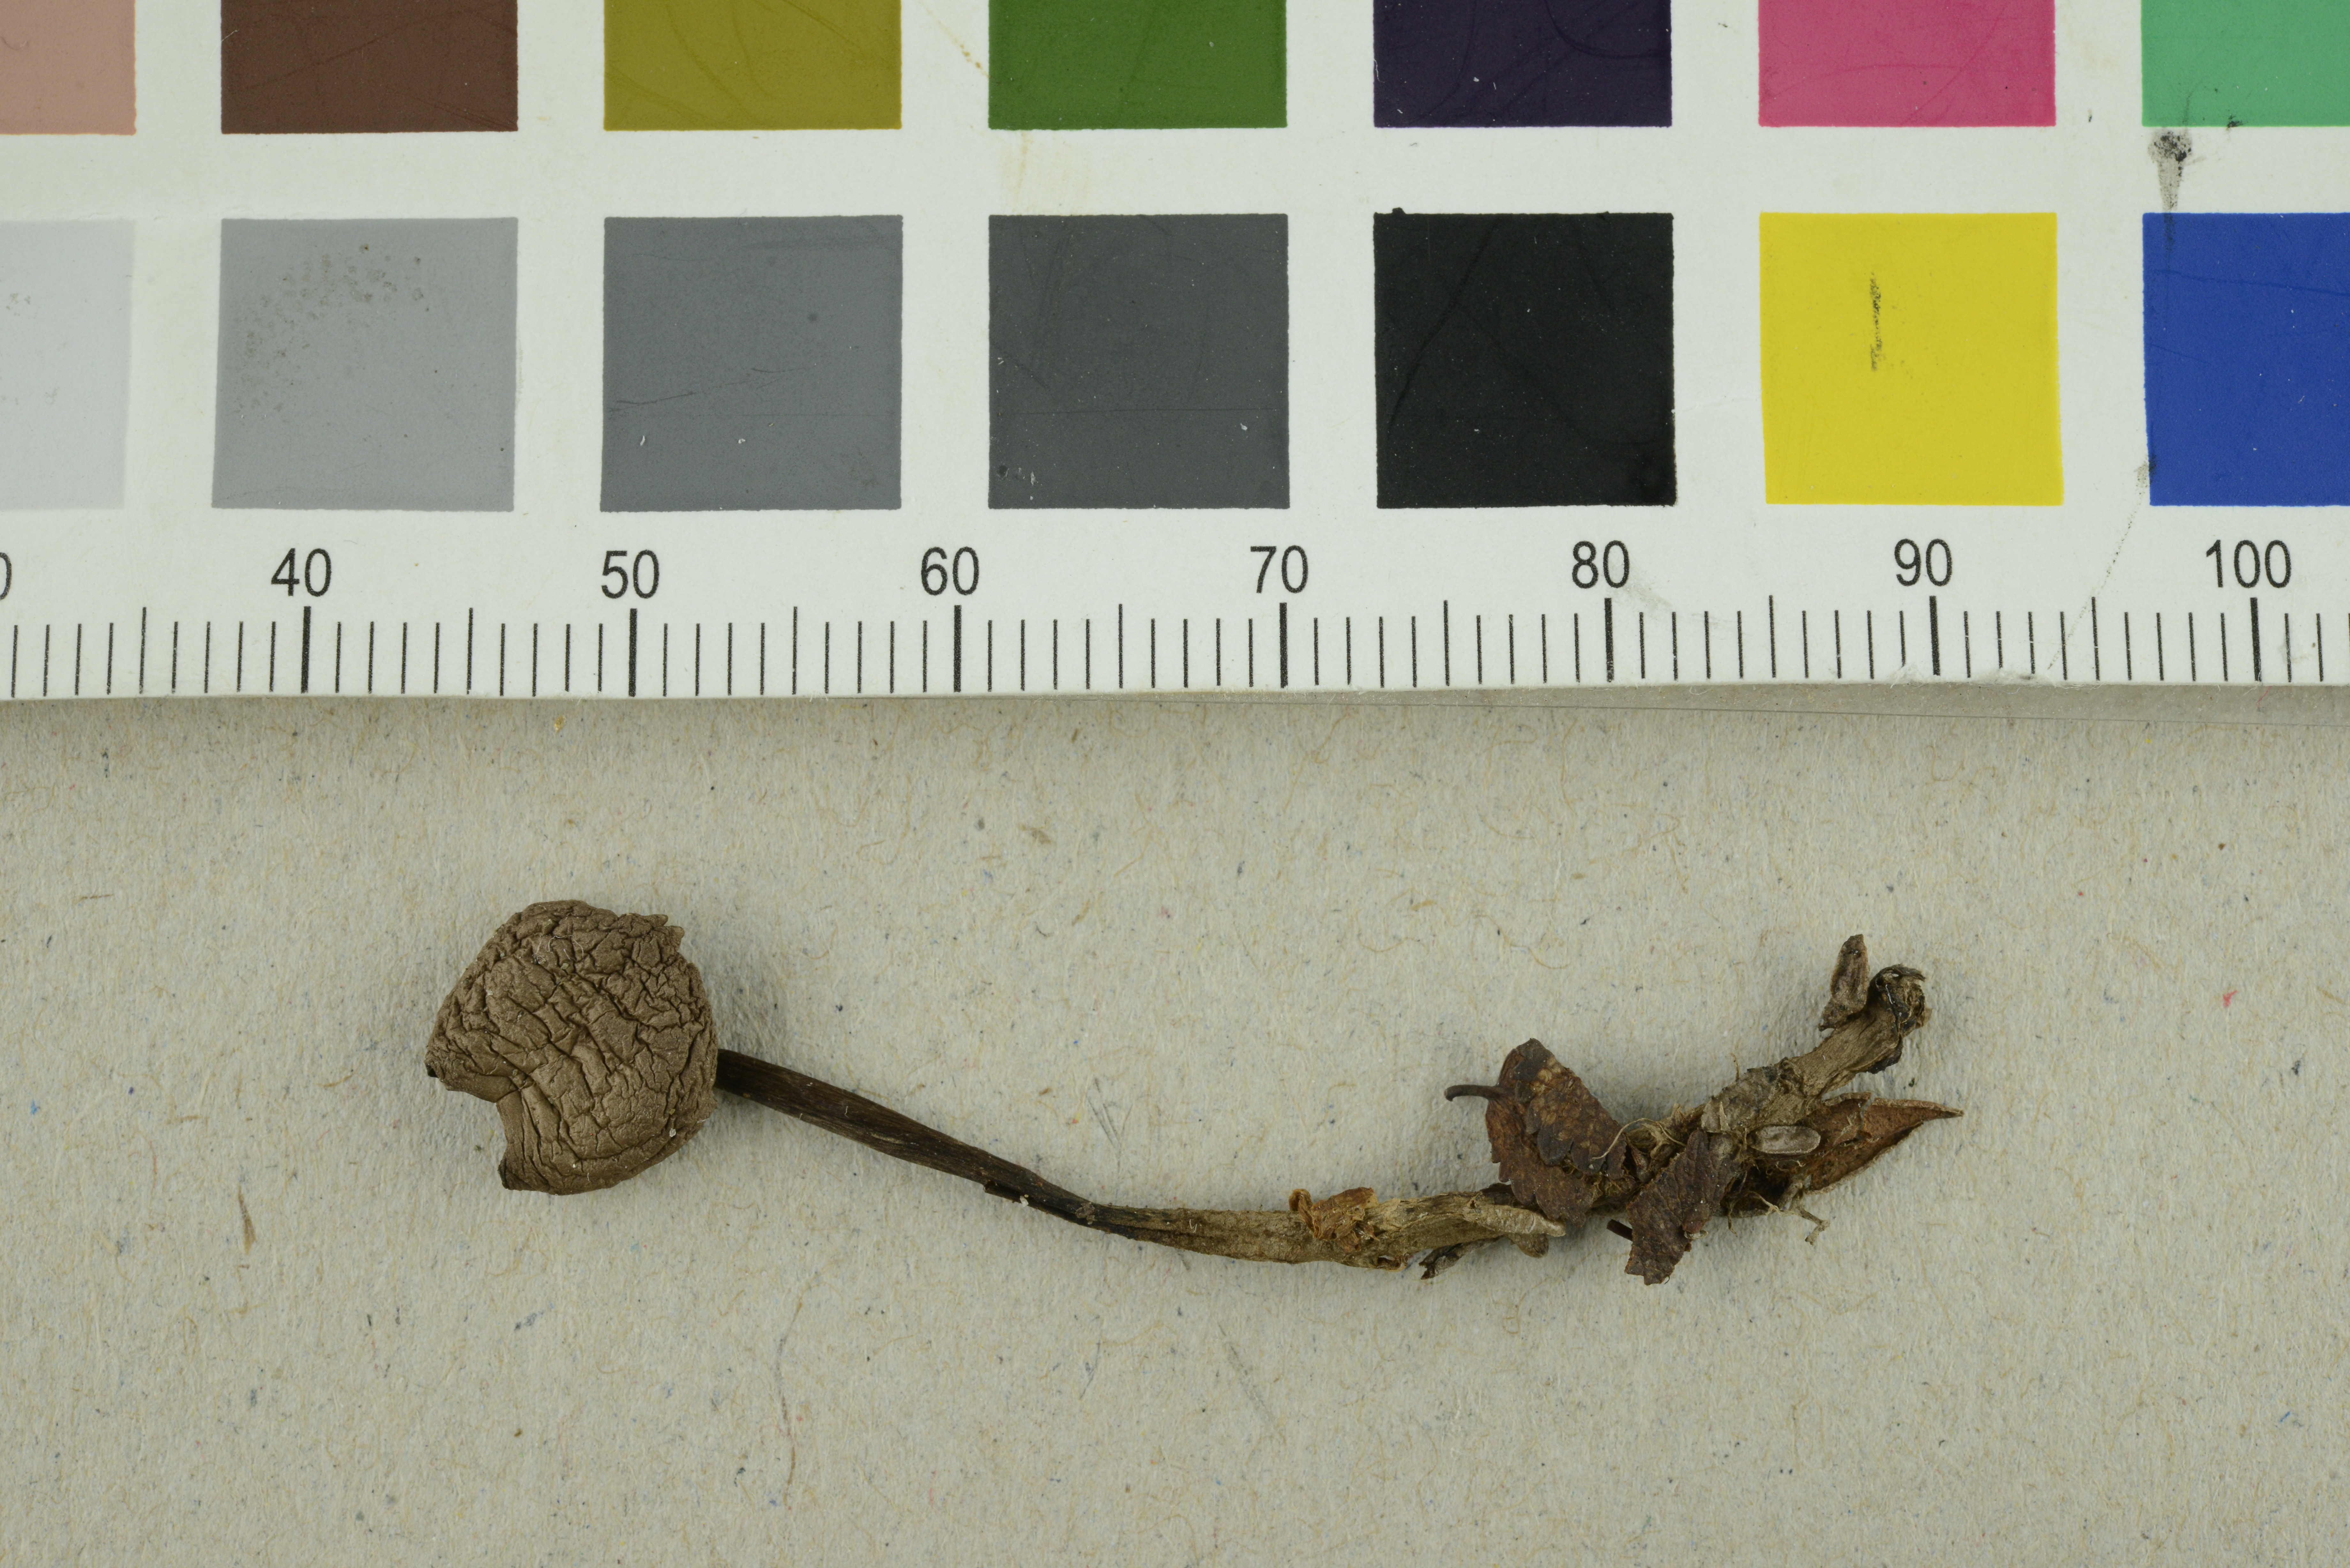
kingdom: Fungi
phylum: Basidiomycota
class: Agaricomycetes
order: Agaricales
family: Omphalotaceae
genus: Gymnopus
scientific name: Gymnopus fuscopurpureus
